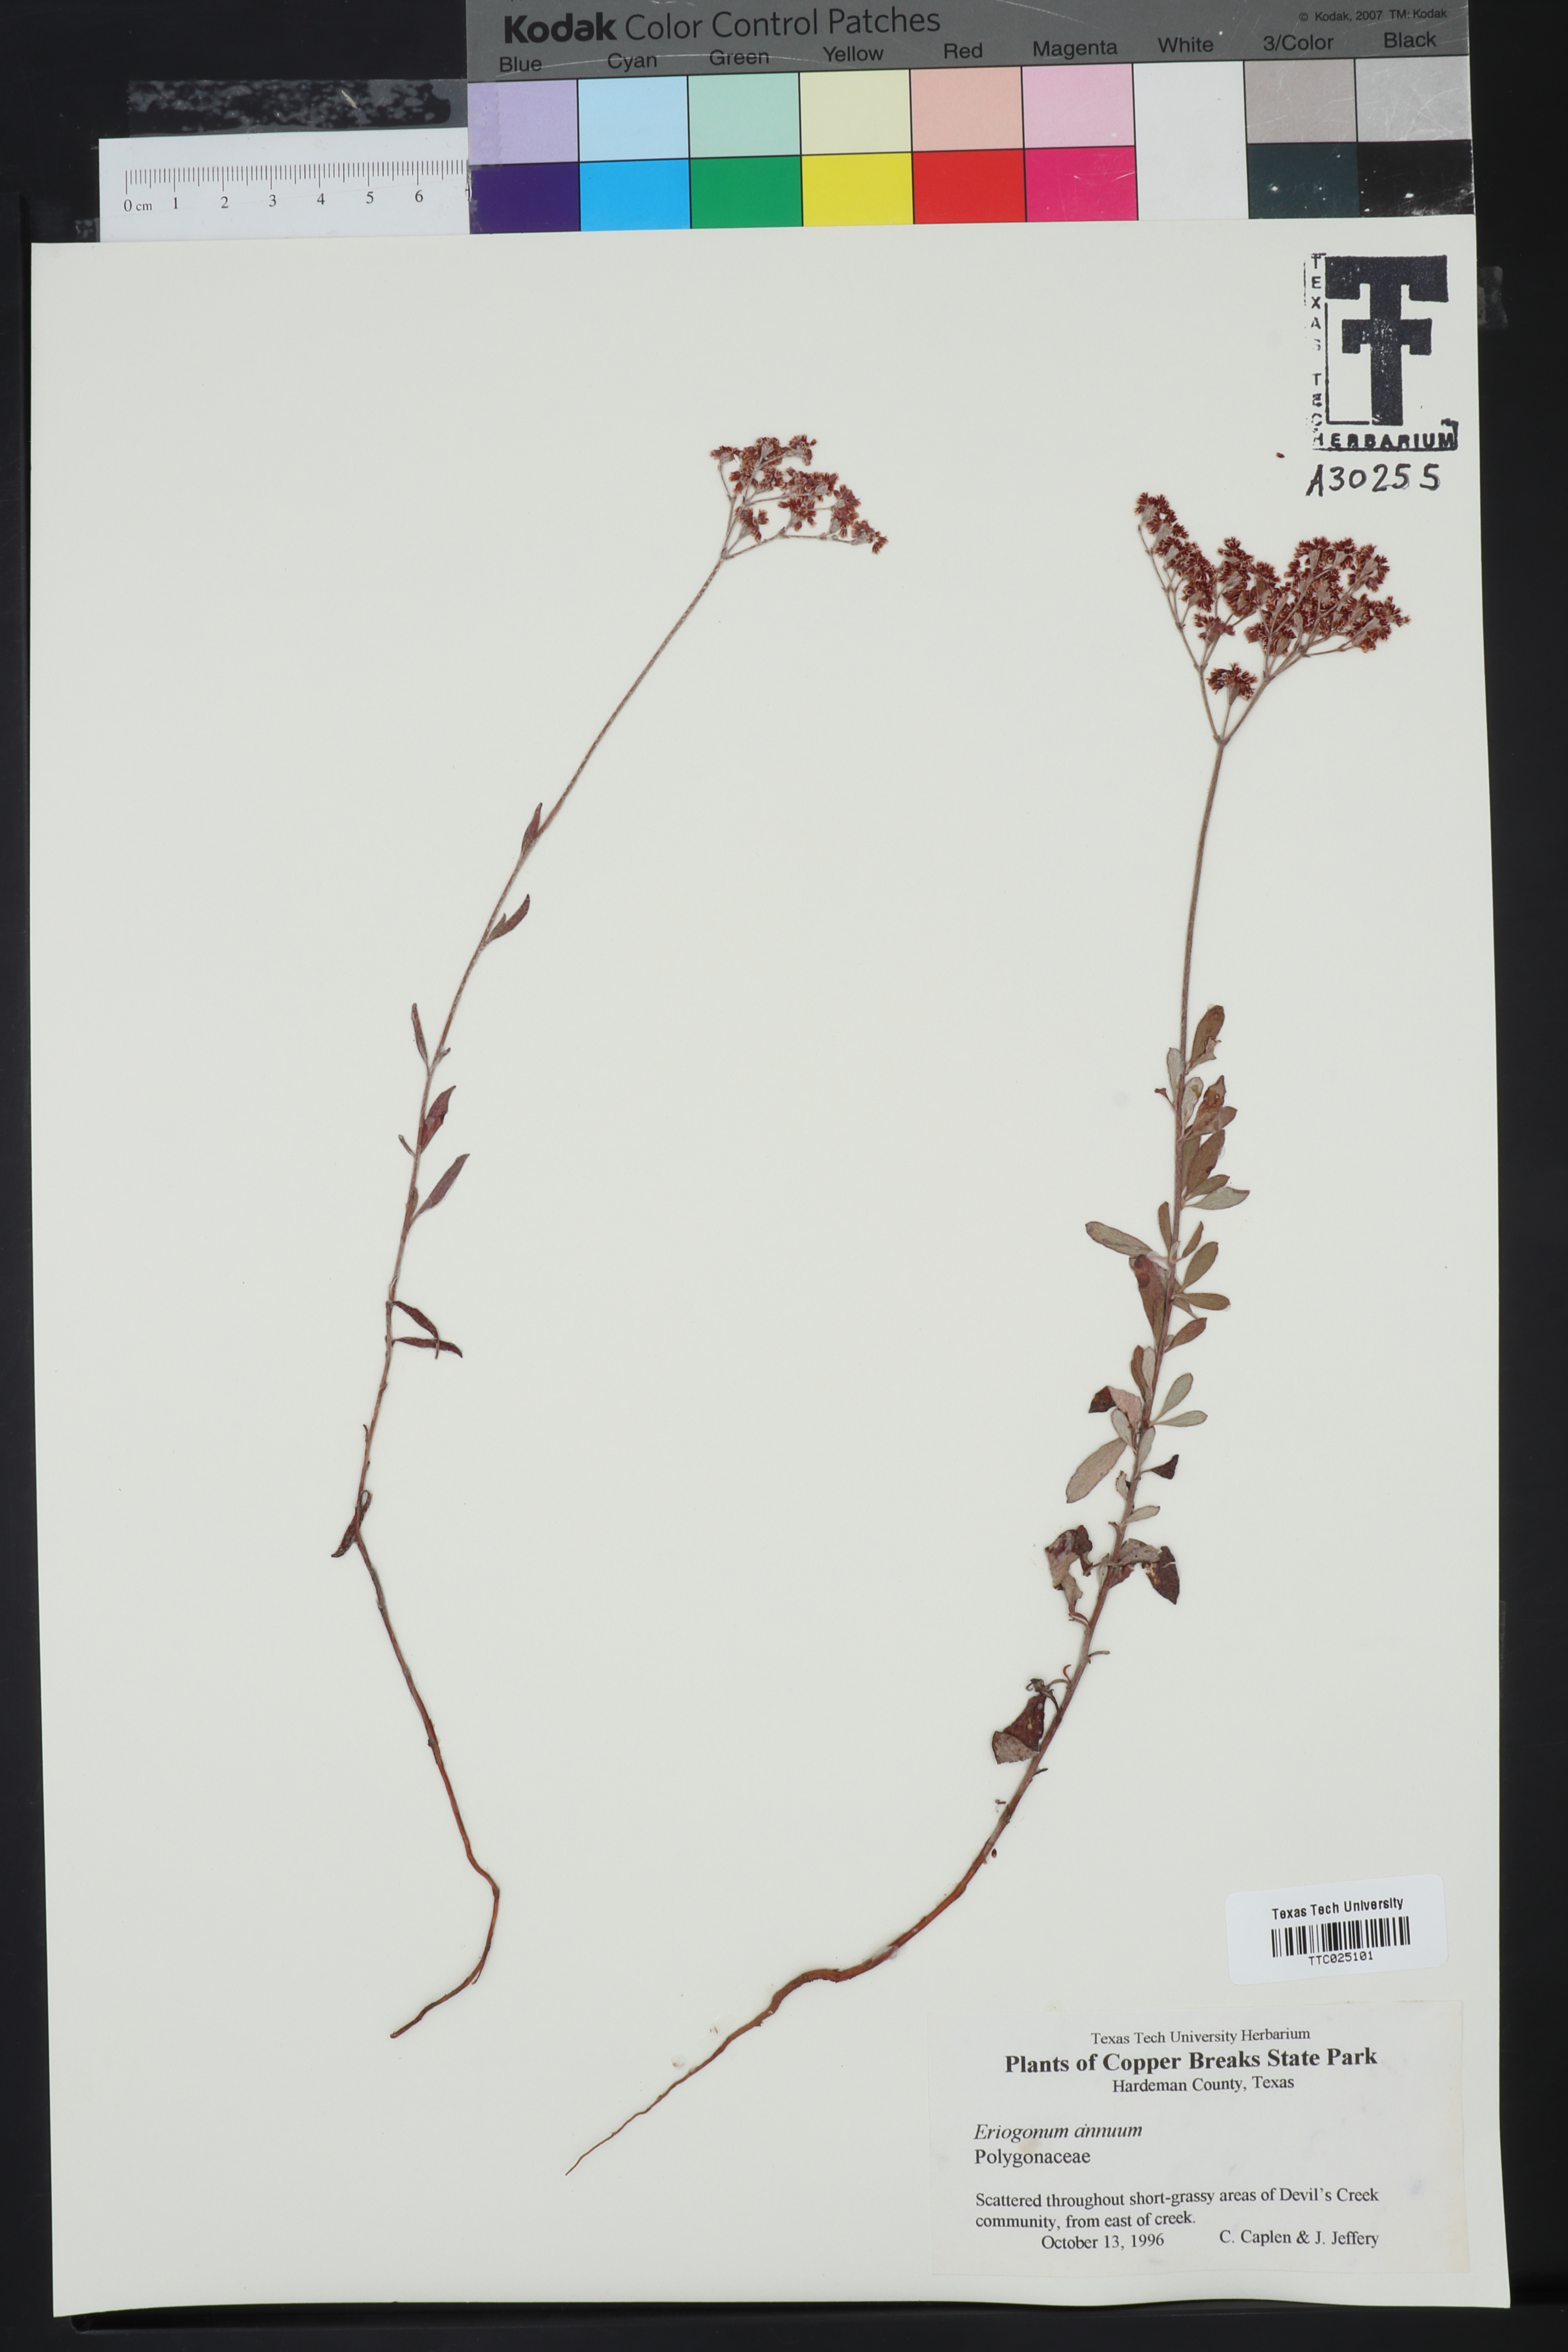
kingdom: Plantae
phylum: Tracheophyta
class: Magnoliopsida
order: Caryophyllales
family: Polygonaceae
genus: Eriogonum
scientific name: Eriogonum annuum
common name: Annual wild buckwheat
